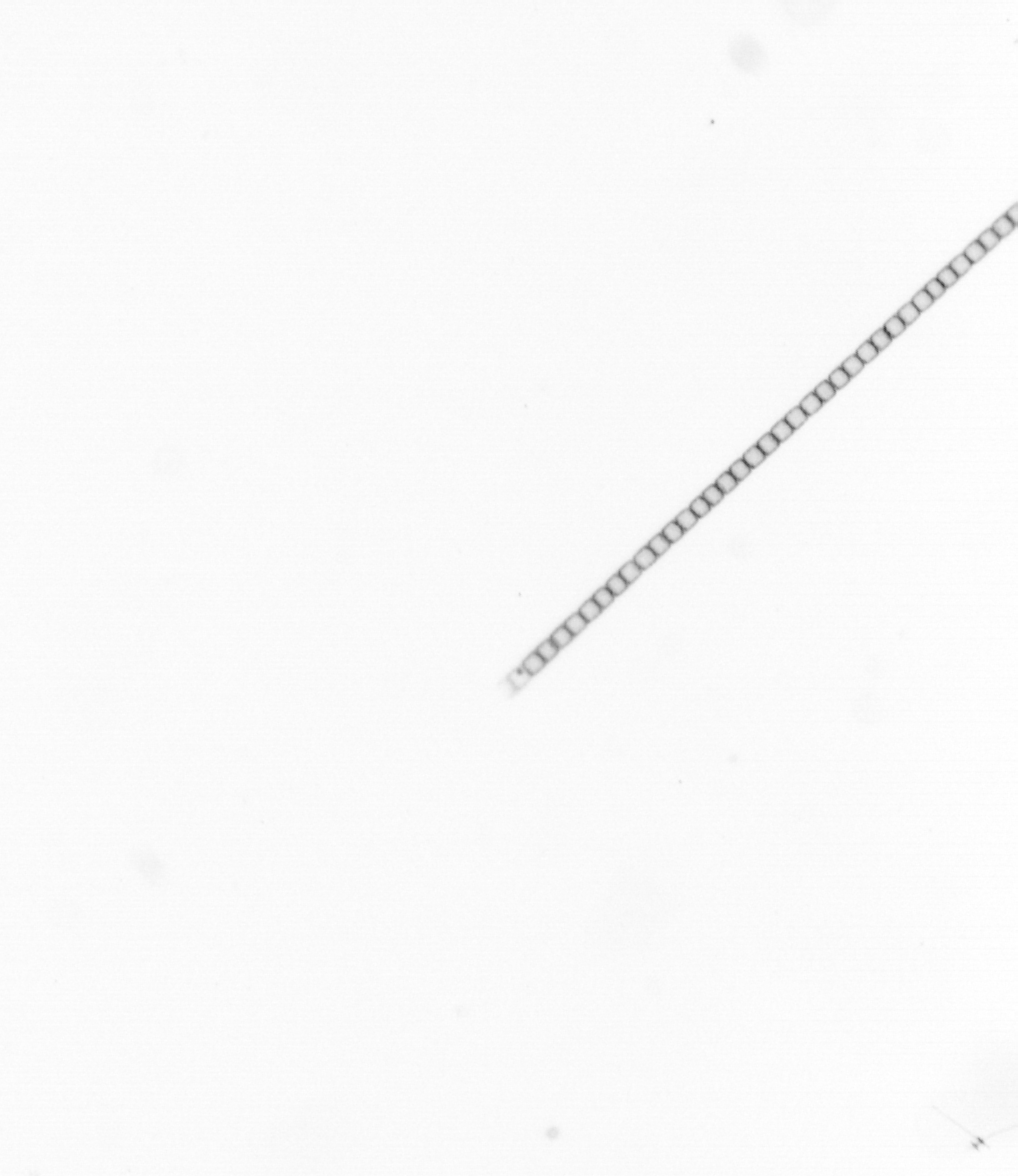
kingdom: Chromista
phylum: Ochrophyta
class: Bacillariophyceae
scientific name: Bacillariophyceae
